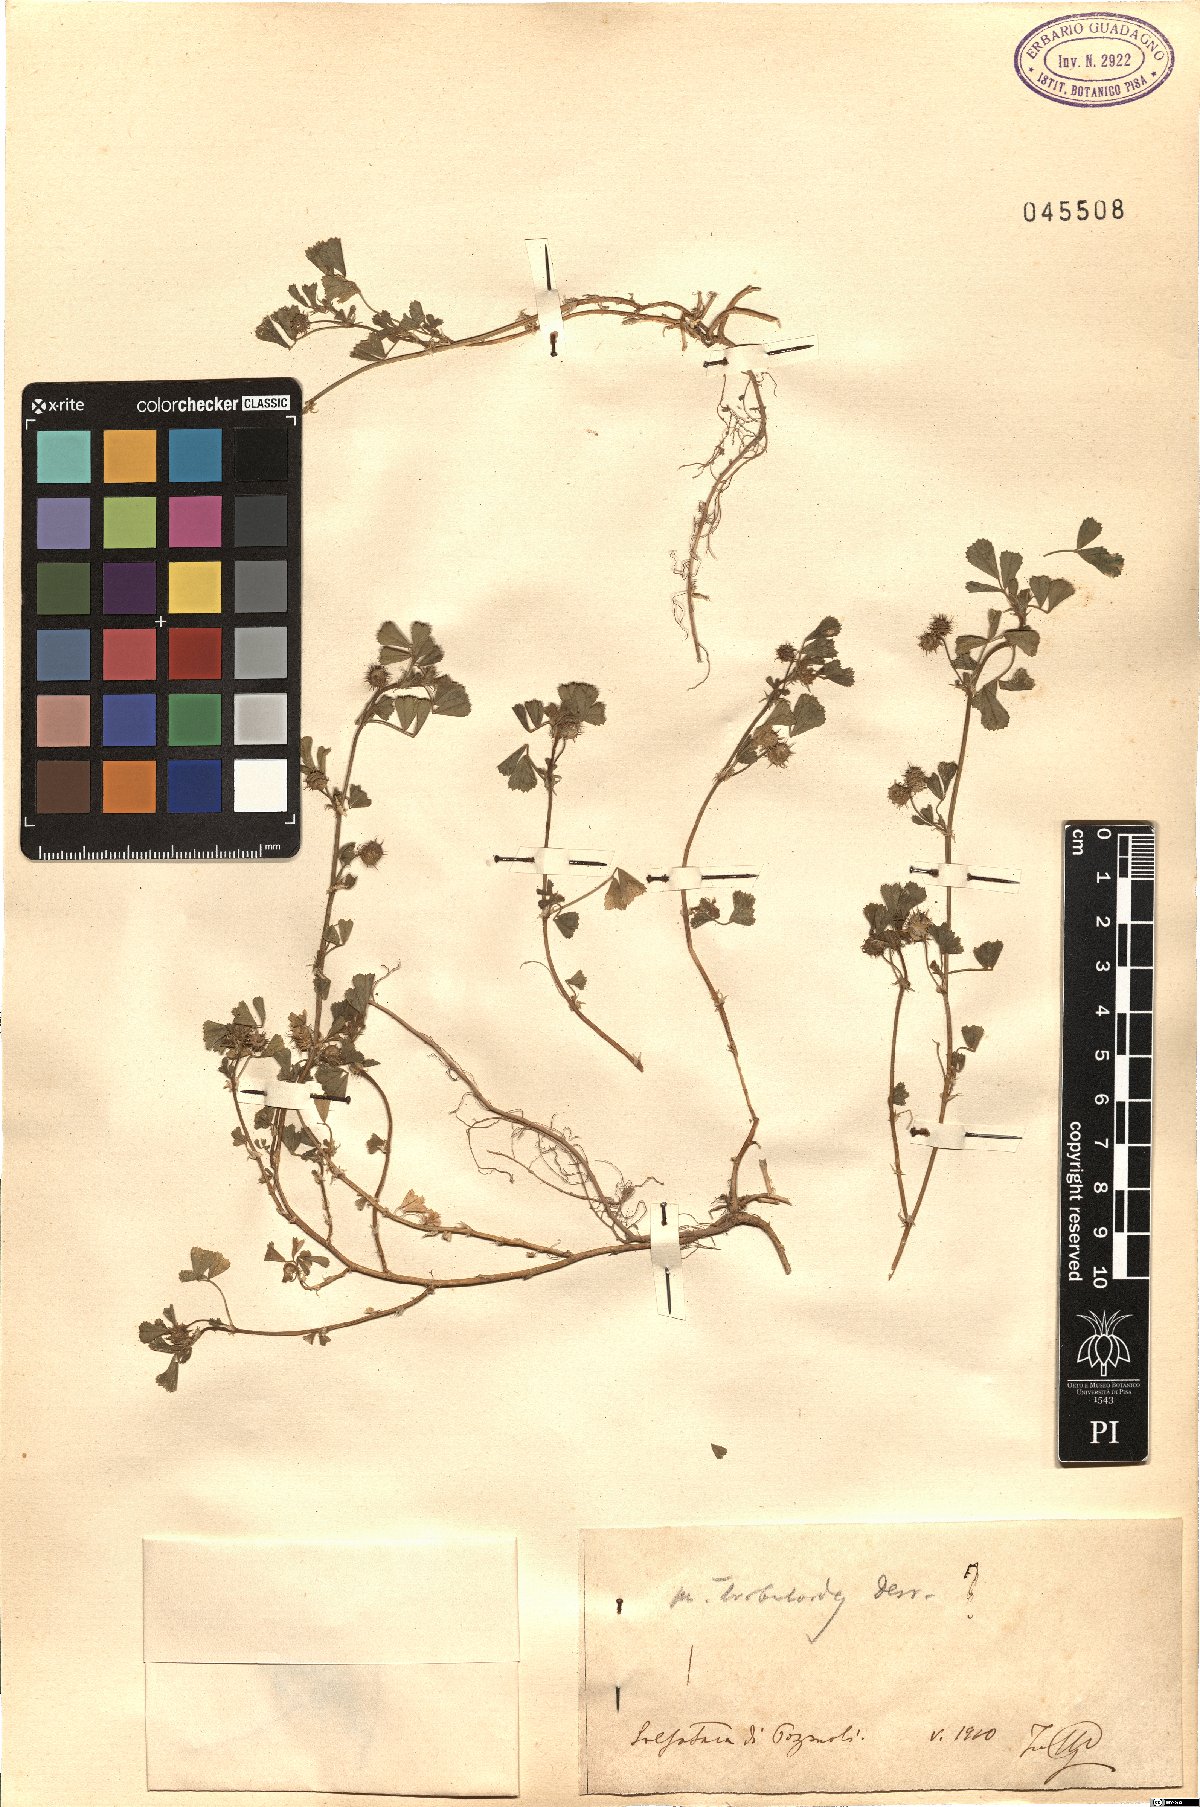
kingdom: Plantae
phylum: Tracheophyta
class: Magnoliopsida
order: Fabales
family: Fabaceae
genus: Medicago
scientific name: Medicago truncatula
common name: Strong-spined medick
